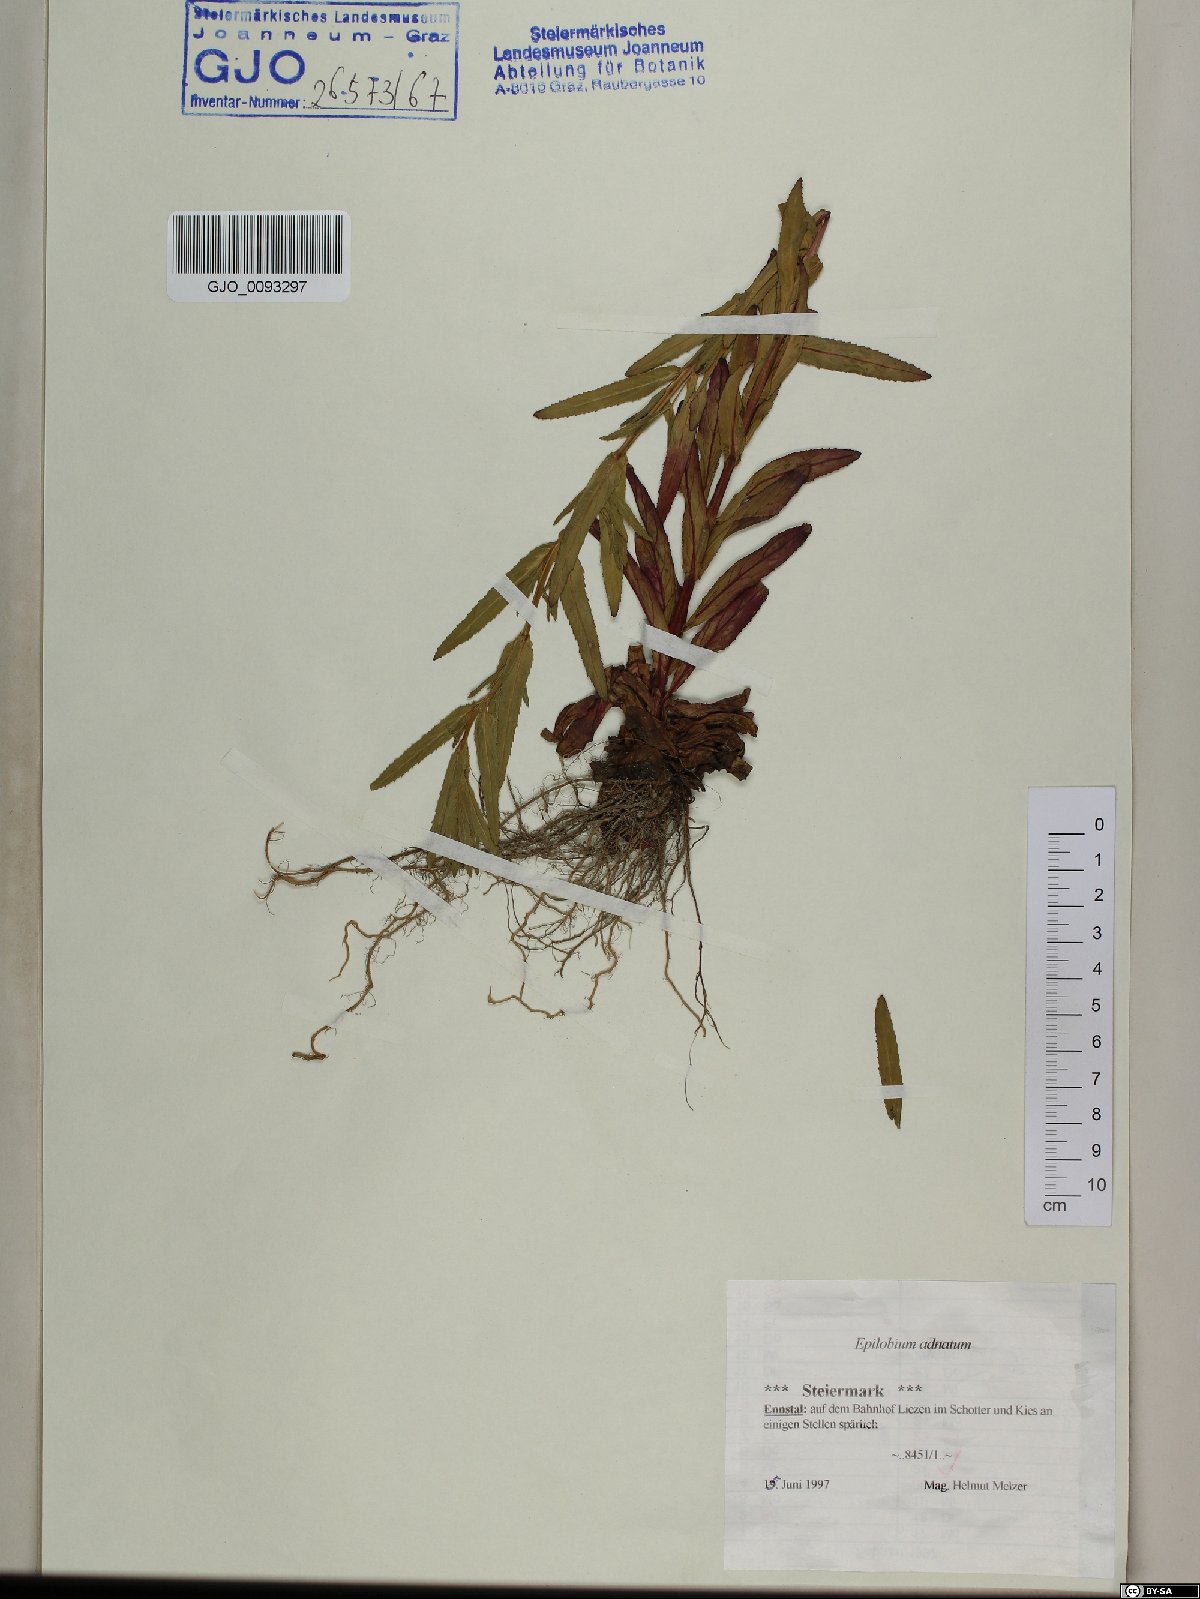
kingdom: Plantae
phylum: Tracheophyta
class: Magnoliopsida
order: Myrtales
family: Onagraceae
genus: Epilobium
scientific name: Epilobium tetragonum
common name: Square-stemmed willowherb
